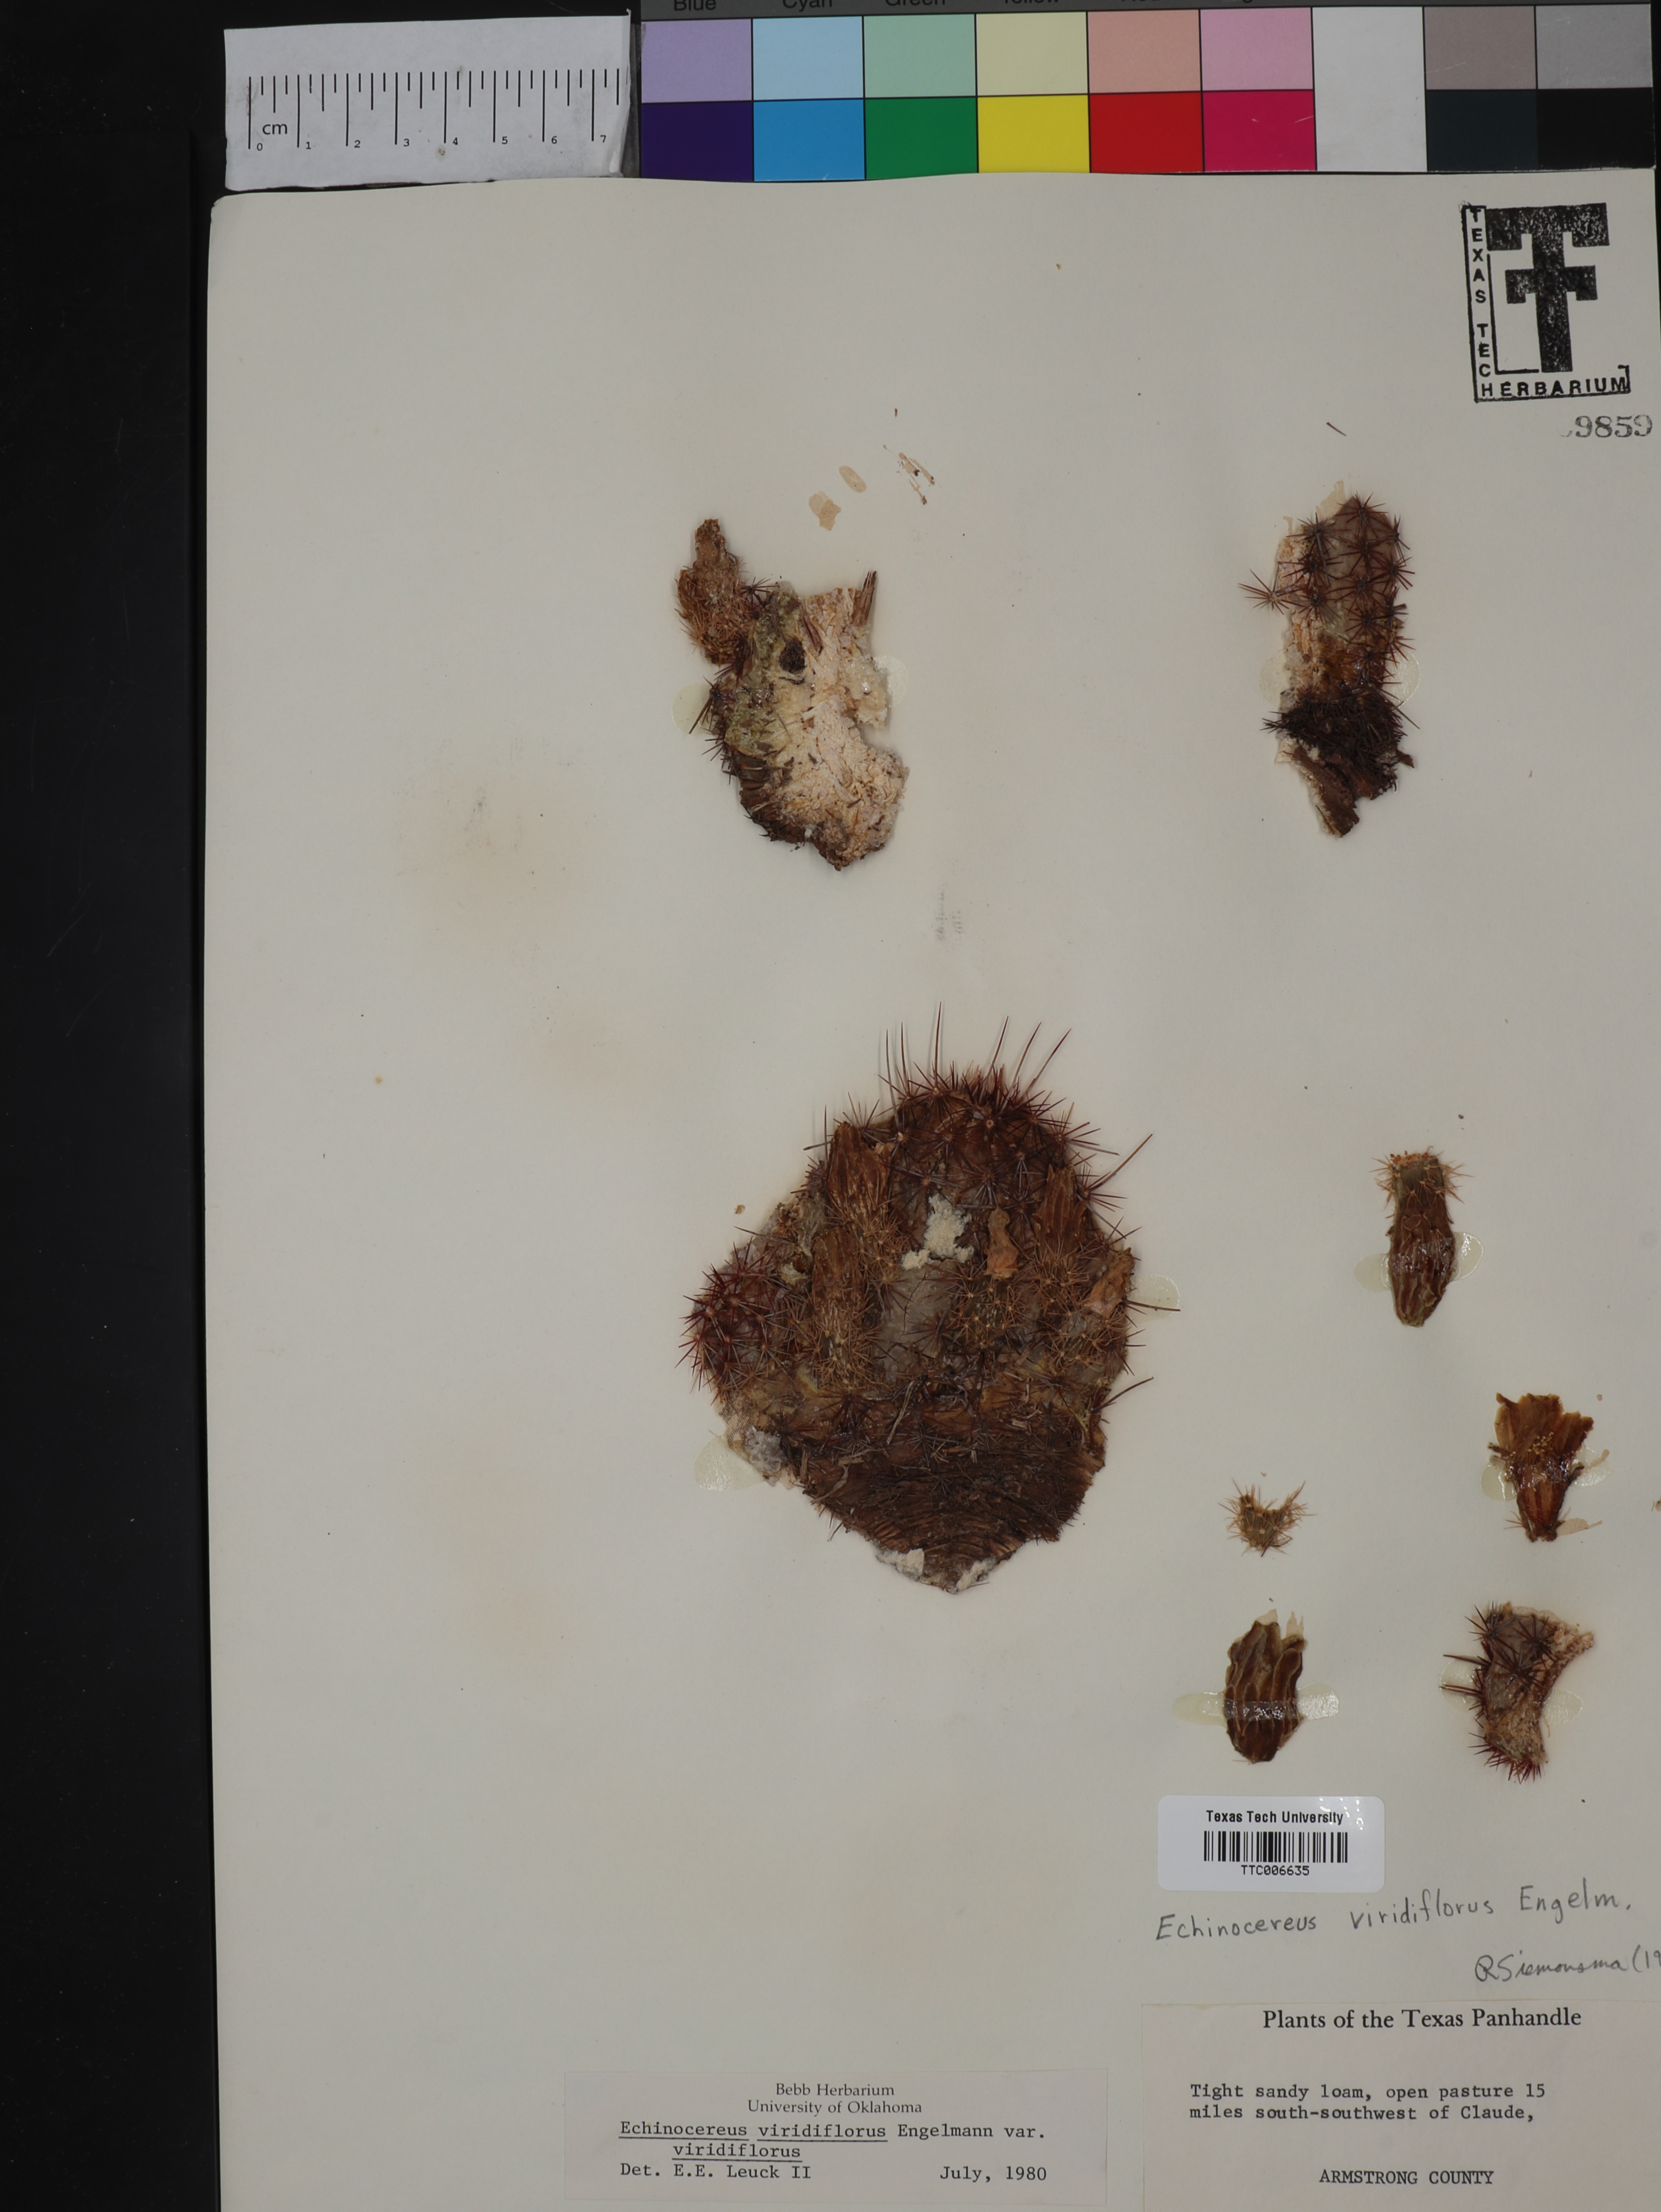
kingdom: Plantae
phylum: Tracheophyta
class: Magnoliopsida
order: Caryophyllales
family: Cactaceae
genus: Echinocereus
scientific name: Echinocereus viridiflorus
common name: Nylon hedgehog cactus
